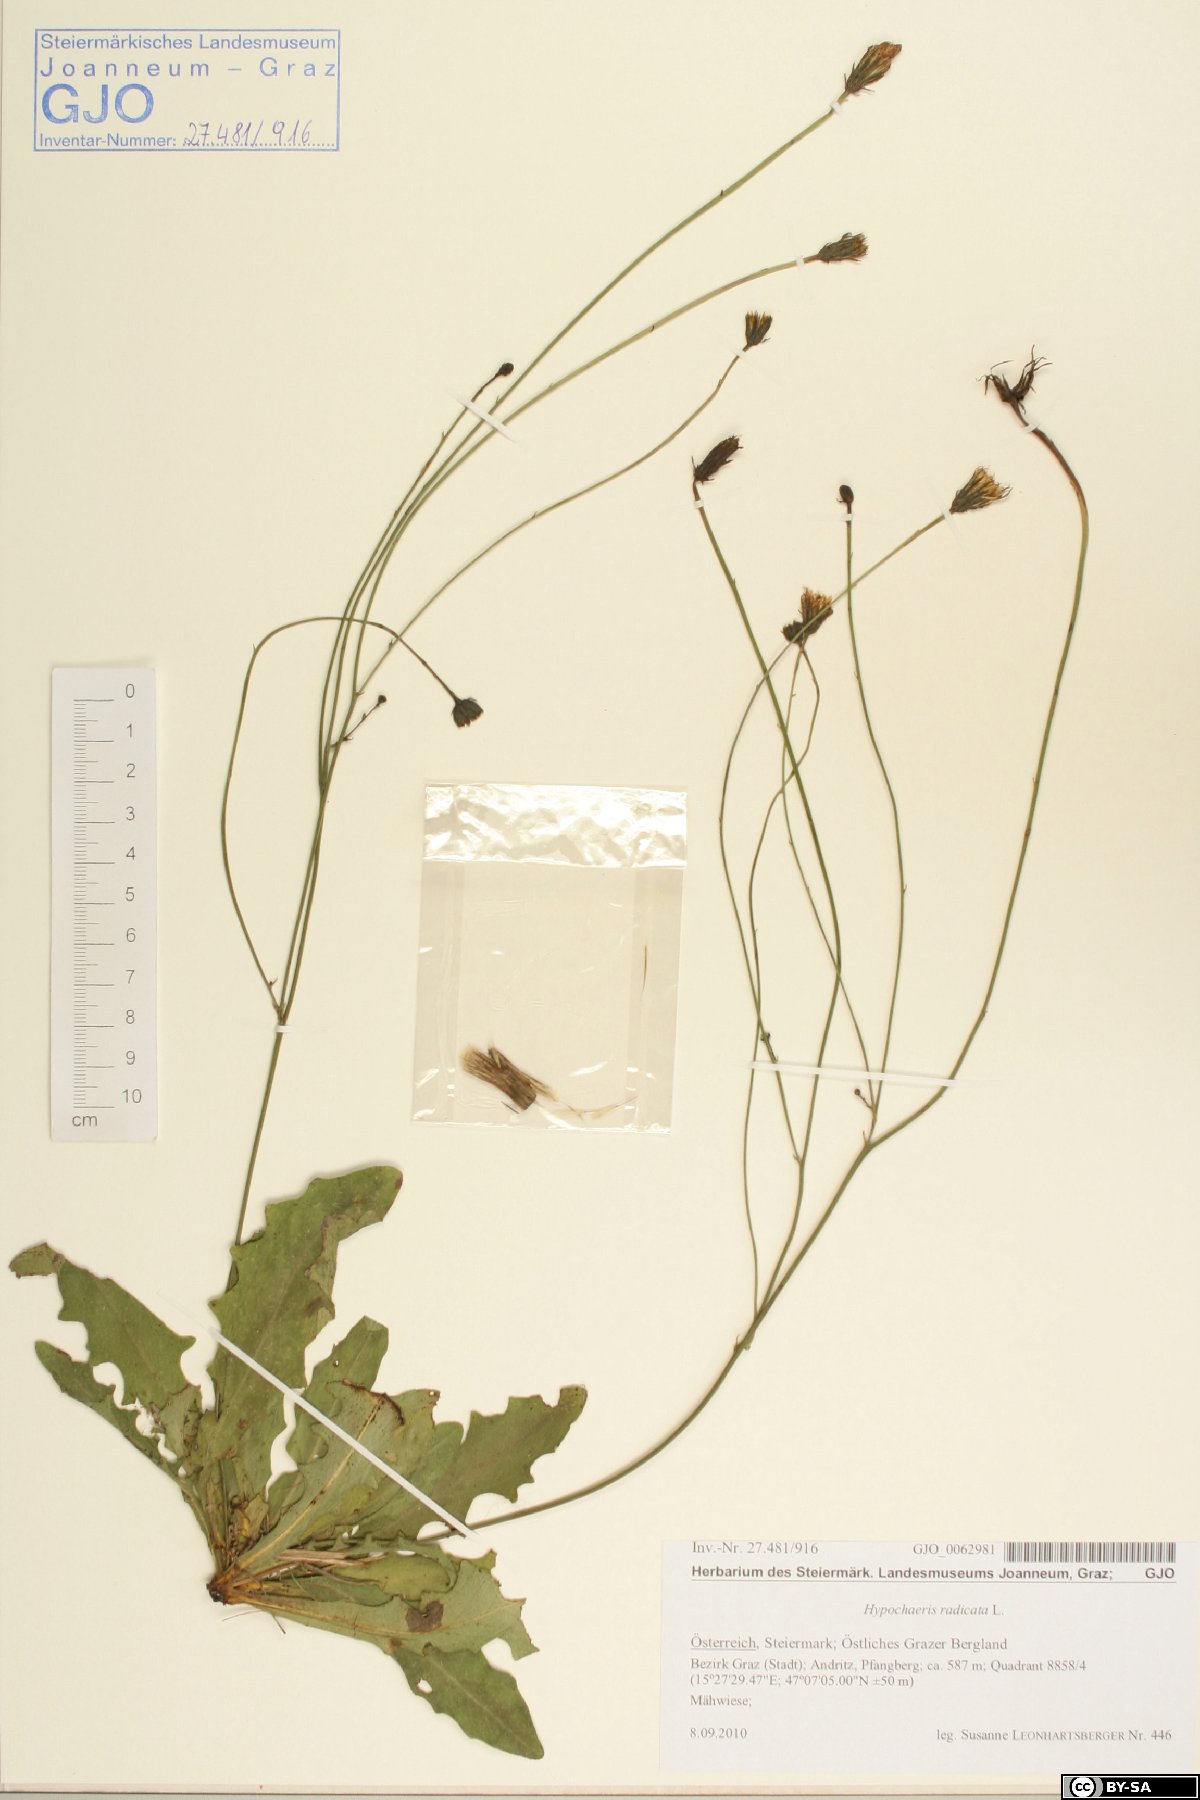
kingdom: Plantae
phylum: Tracheophyta
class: Magnoliopsida
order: Asterales
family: Asteraceae
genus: Hypochaeris
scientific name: Hypochaeris radicata
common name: Flatweed
